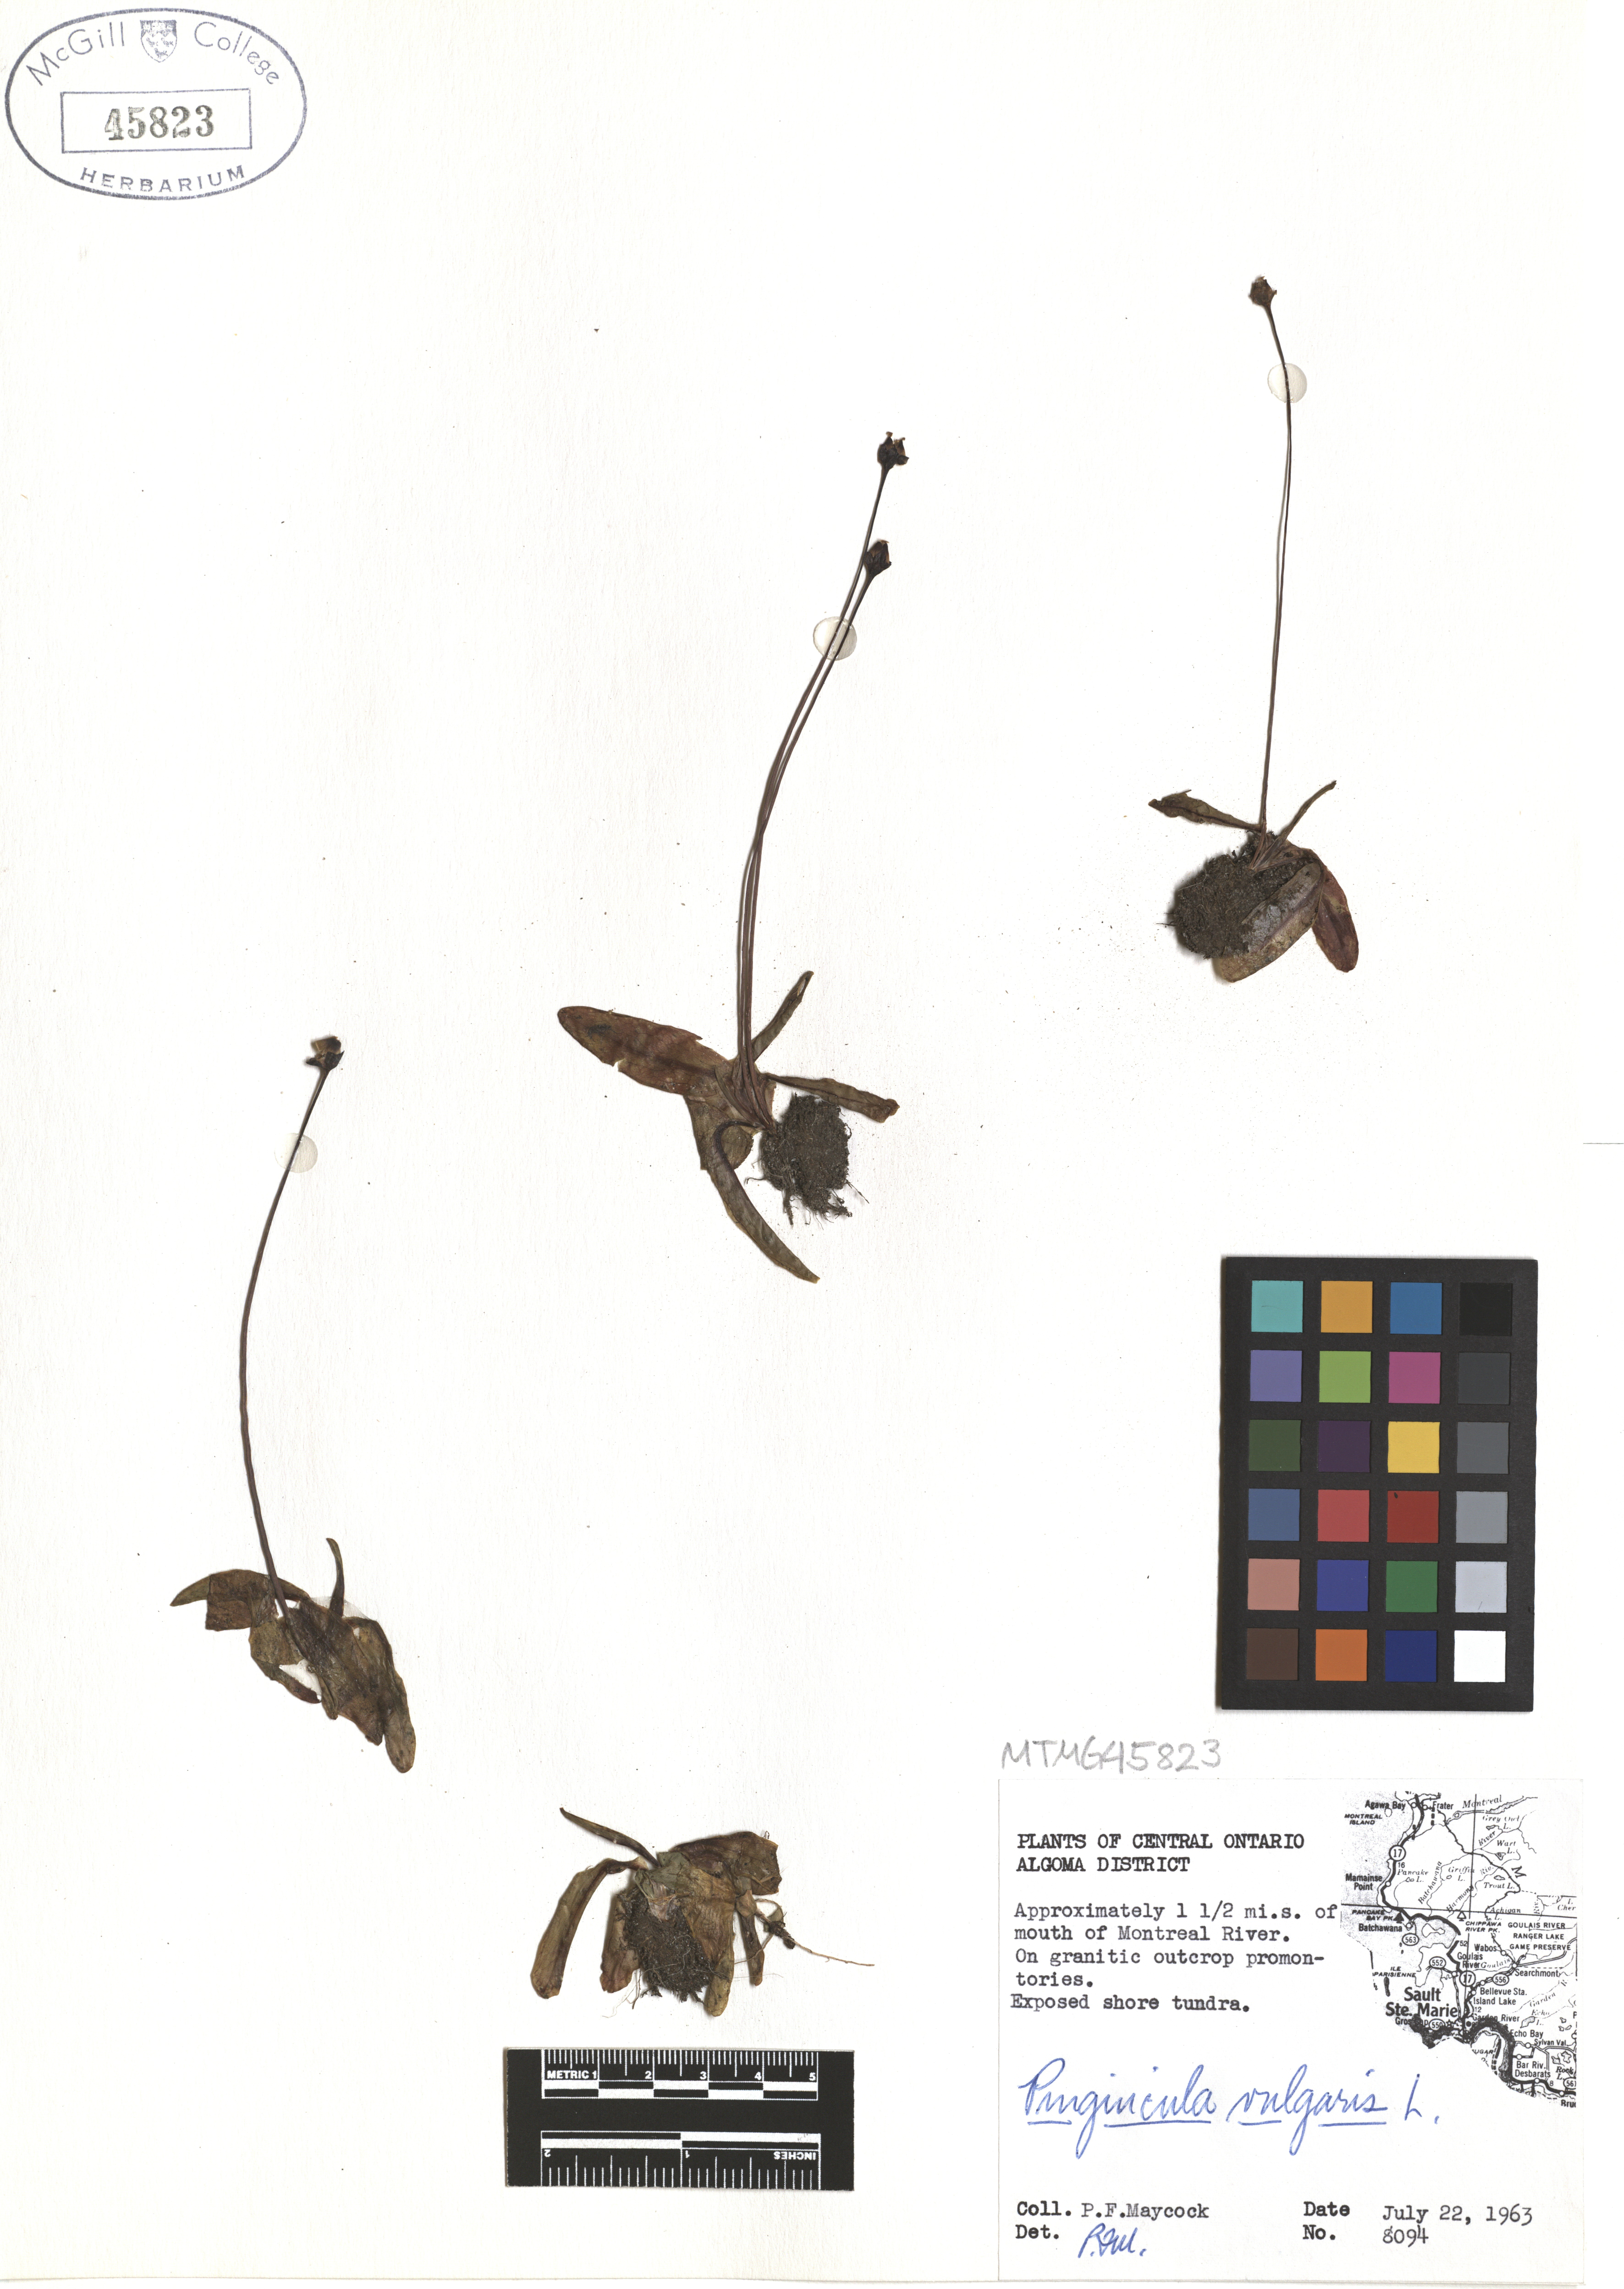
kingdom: Plantae
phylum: Tracheophyta
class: Magnoliopsida
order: Lamiales
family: Lentibulariaceae
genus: Pinguicula
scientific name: Pinguicula vulgaris
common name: Common butterwort
